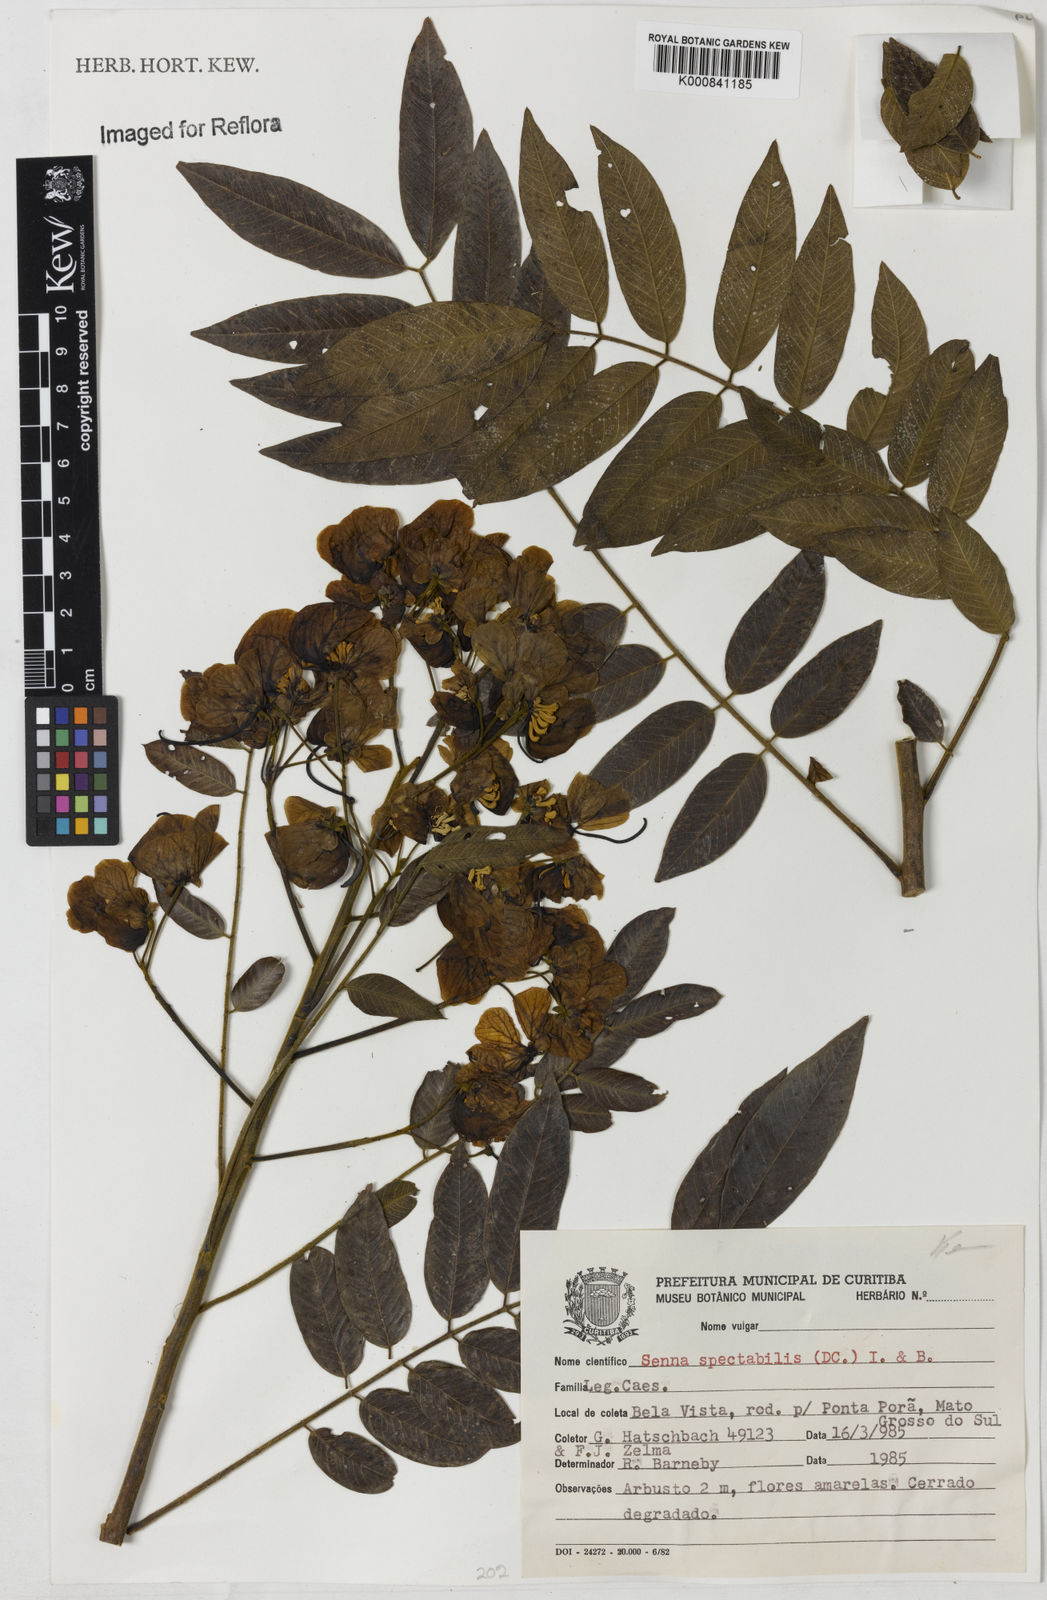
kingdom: Plantae
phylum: Tracheophyta
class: Magnoliopsida
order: Fabales
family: Fabaceae
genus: Senna
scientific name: Senna spectabilis
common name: Casia amarilla
